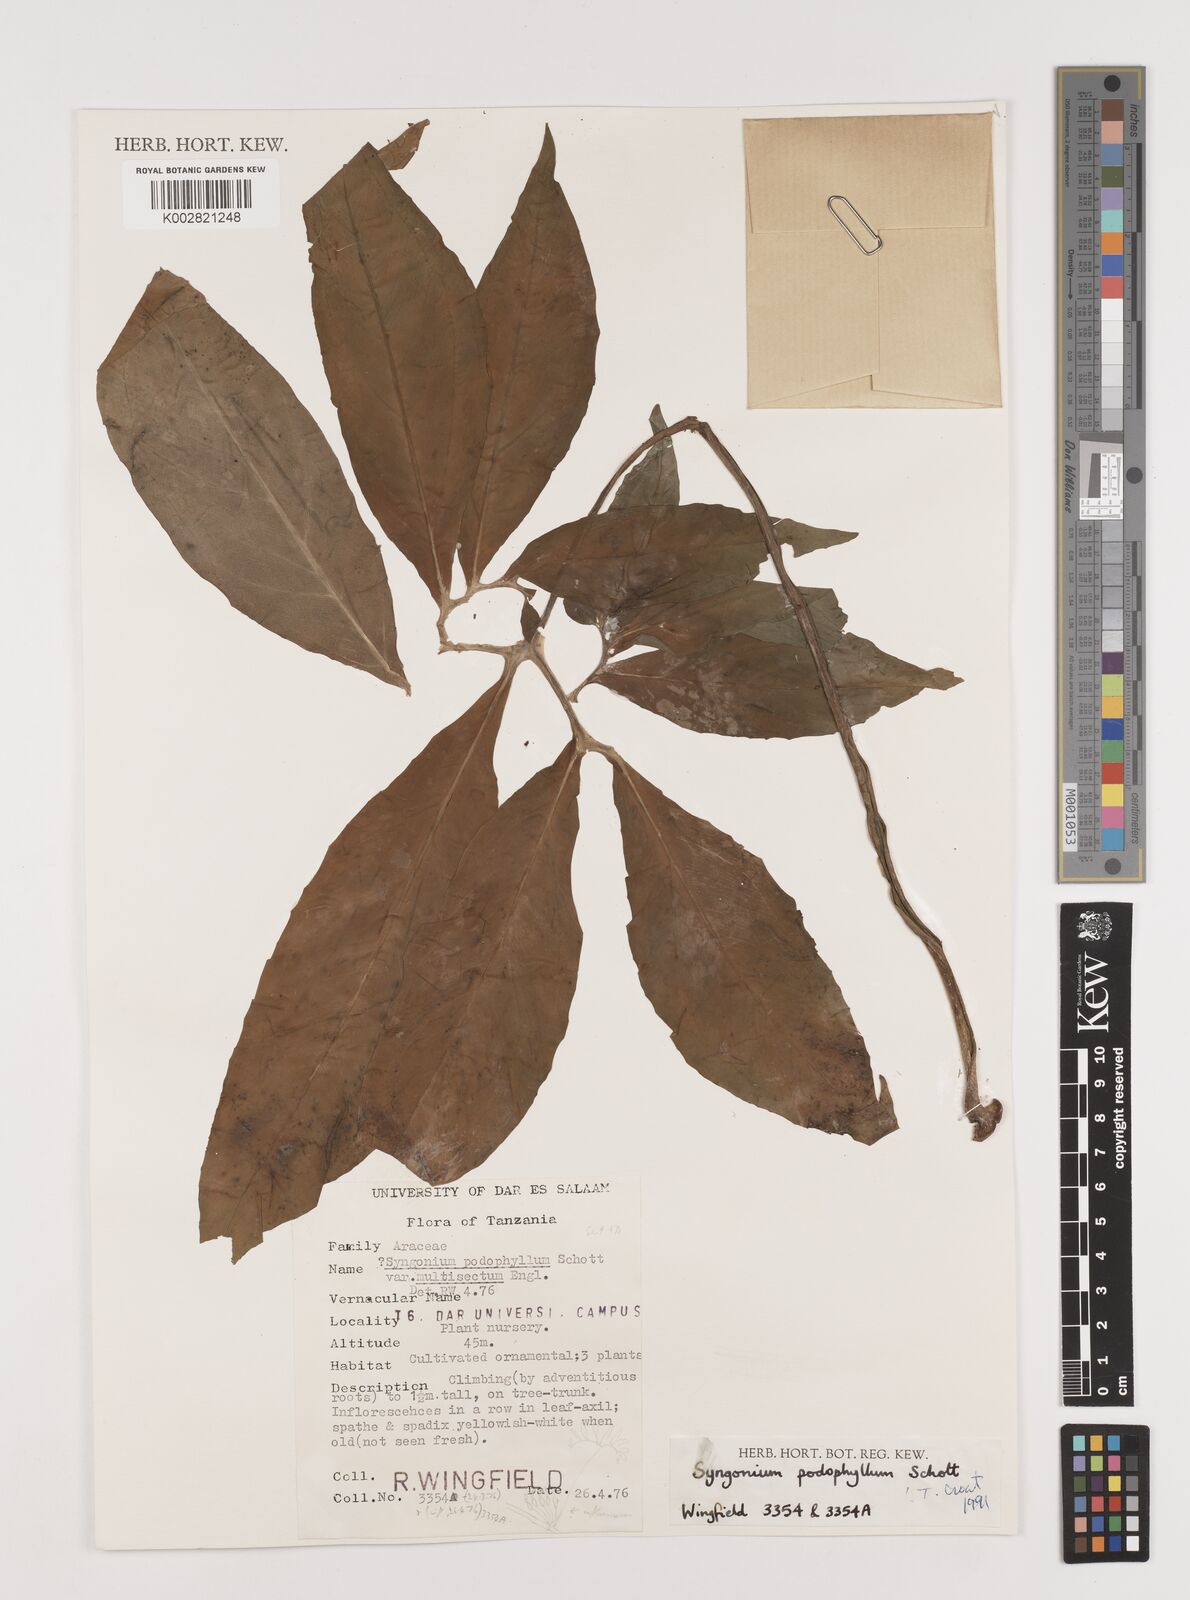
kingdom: Plantae
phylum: Tracheophyta
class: Liliopsida
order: Alismatales
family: Araceae
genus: Syngonium
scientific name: Syngonium podophyllum
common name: American evergreen
